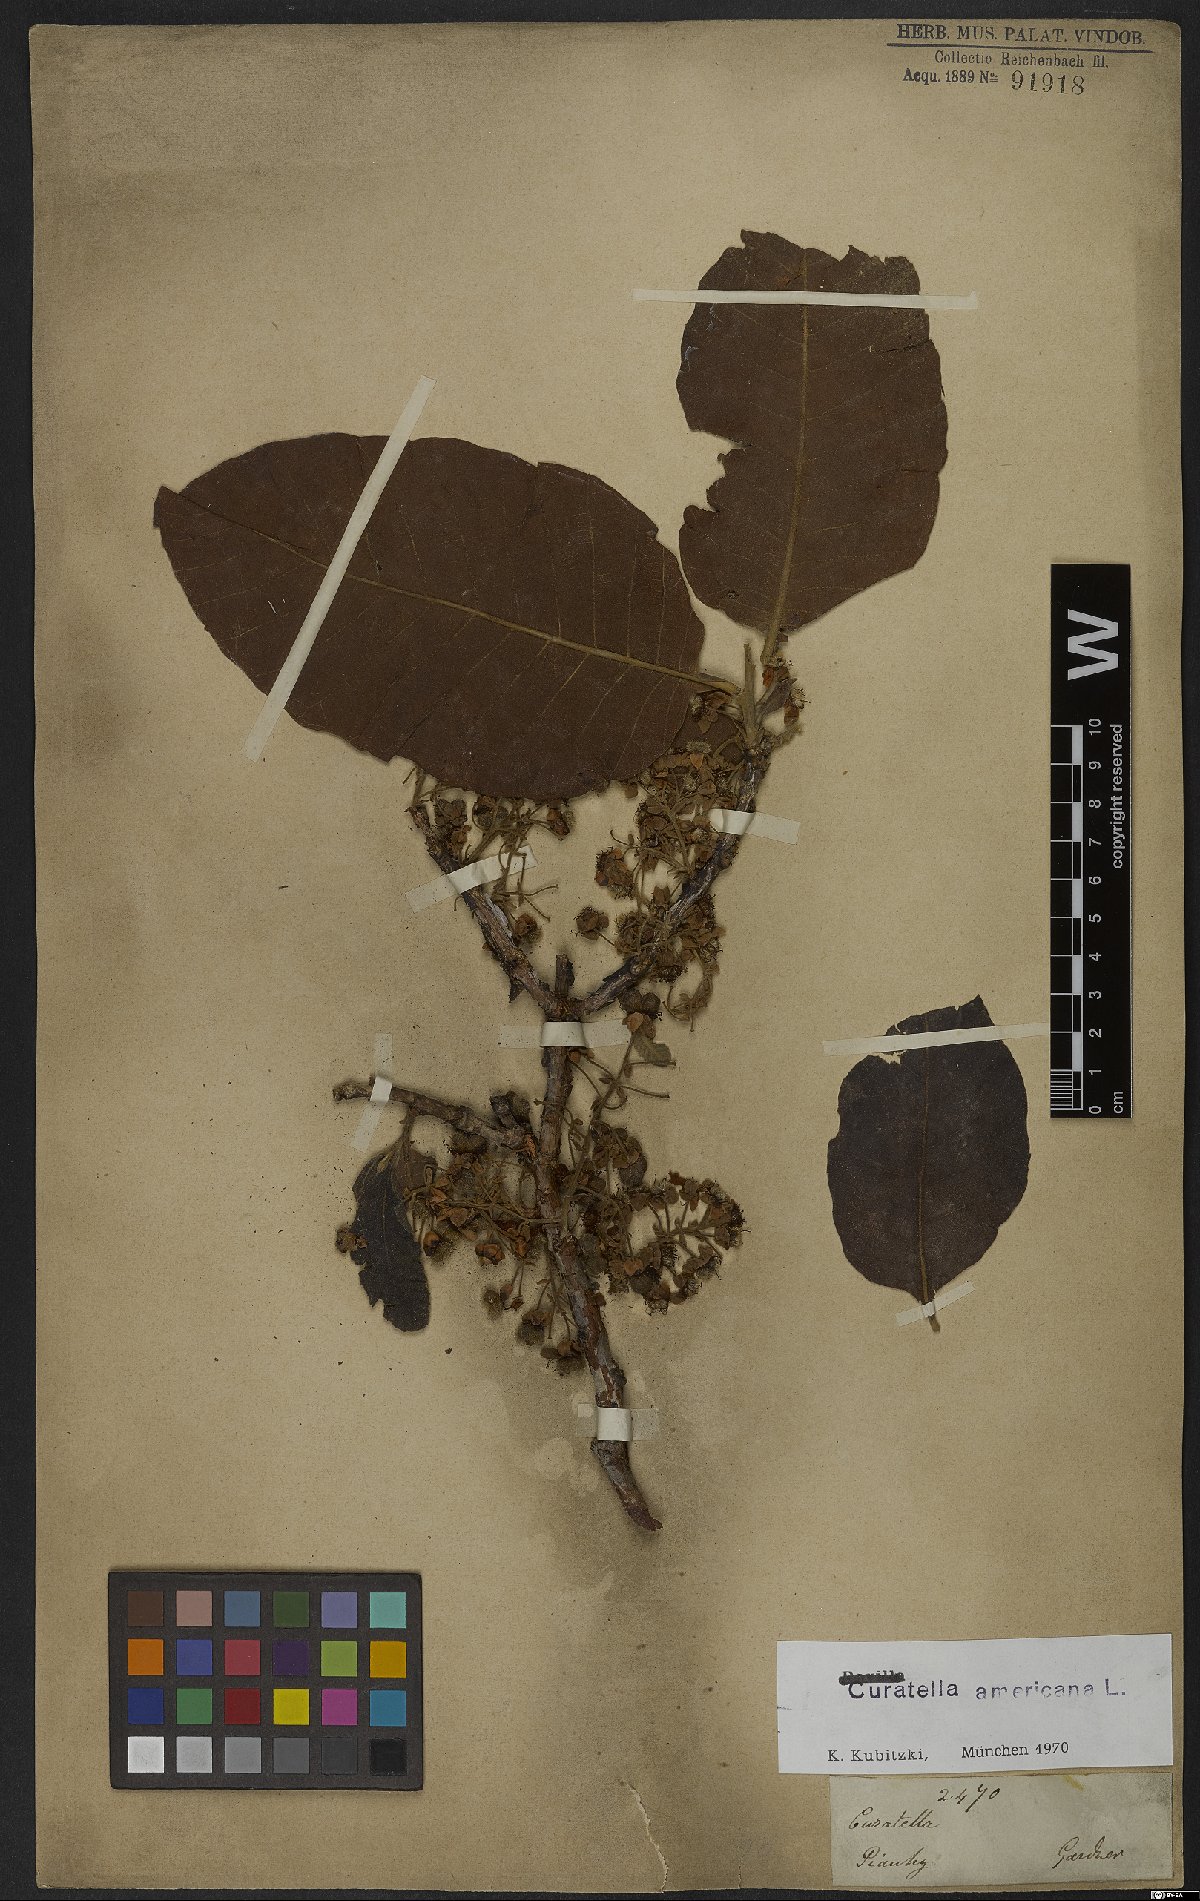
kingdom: Plantae
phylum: Tracheophyta
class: Magnoliopsida
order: Dilleniales
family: Dilleniaceae
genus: Curatella
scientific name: Curatella americana
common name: Sandpaper tree
